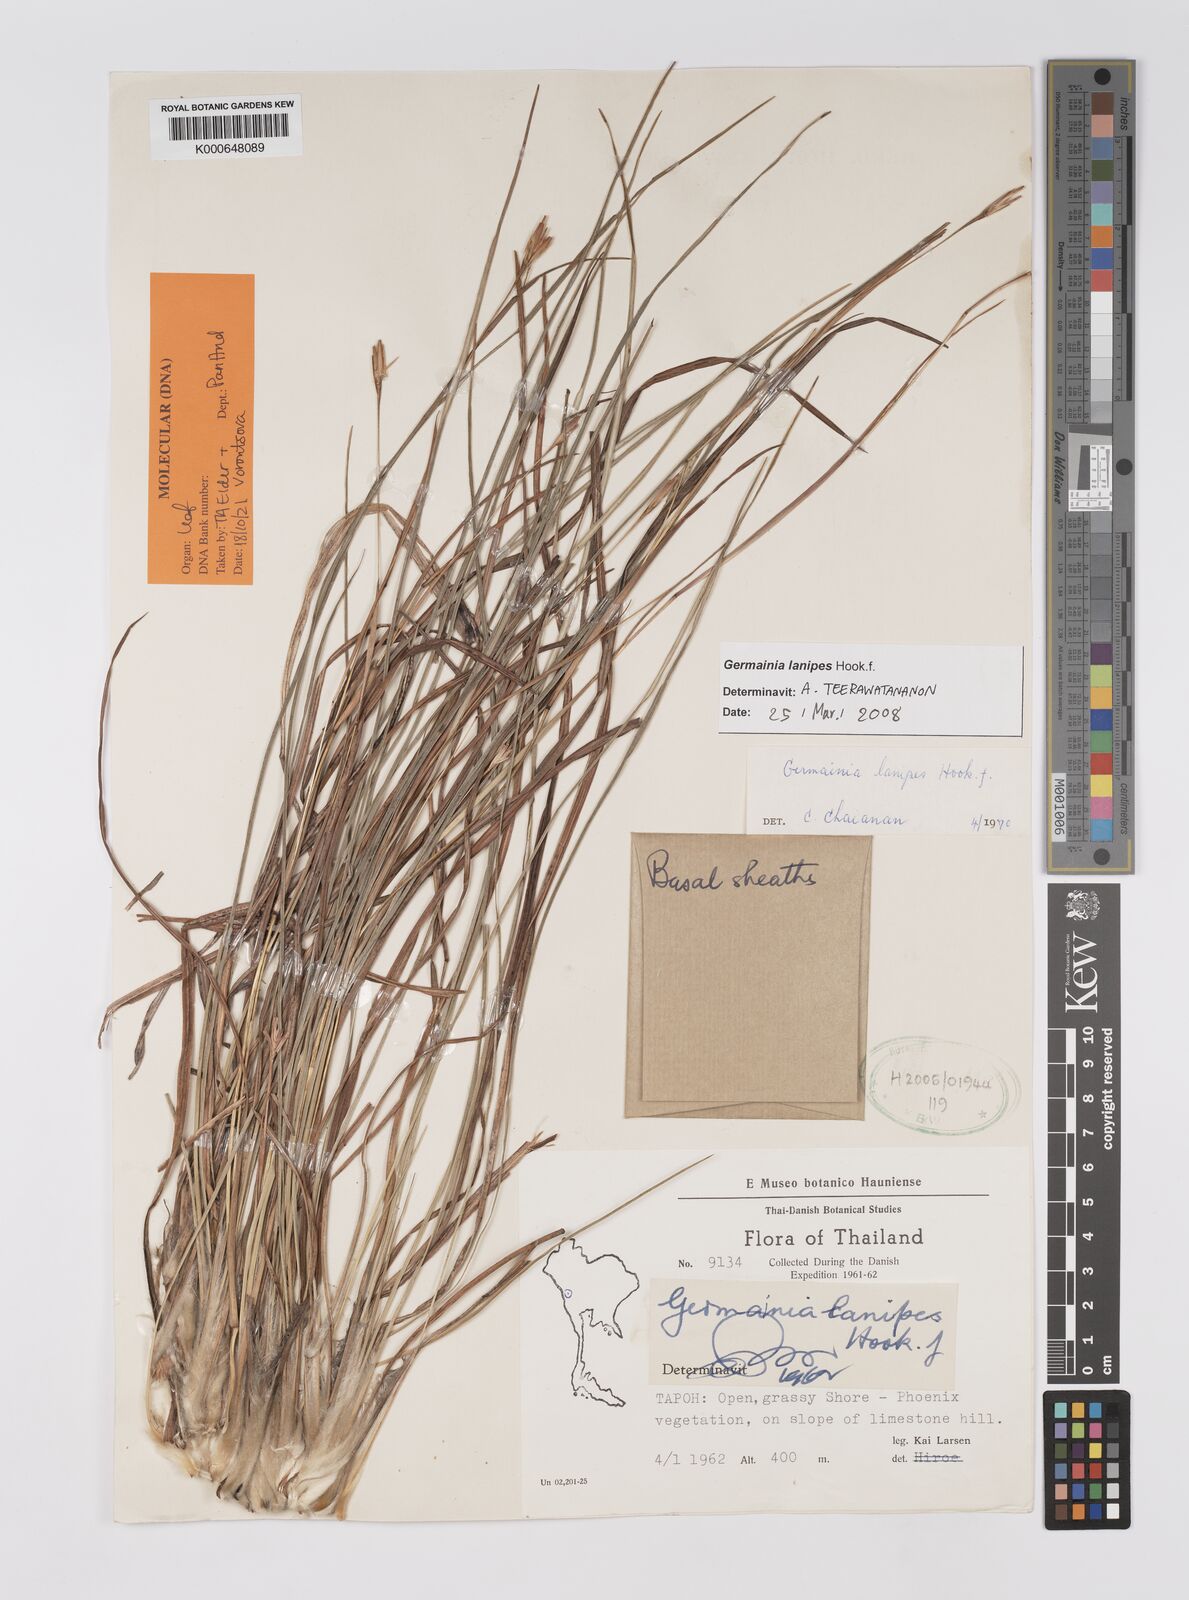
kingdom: Plantae
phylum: Tracheophyta
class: Liliopsida
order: Poales
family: Poaceae
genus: Germainia
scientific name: Germainia lanipes
